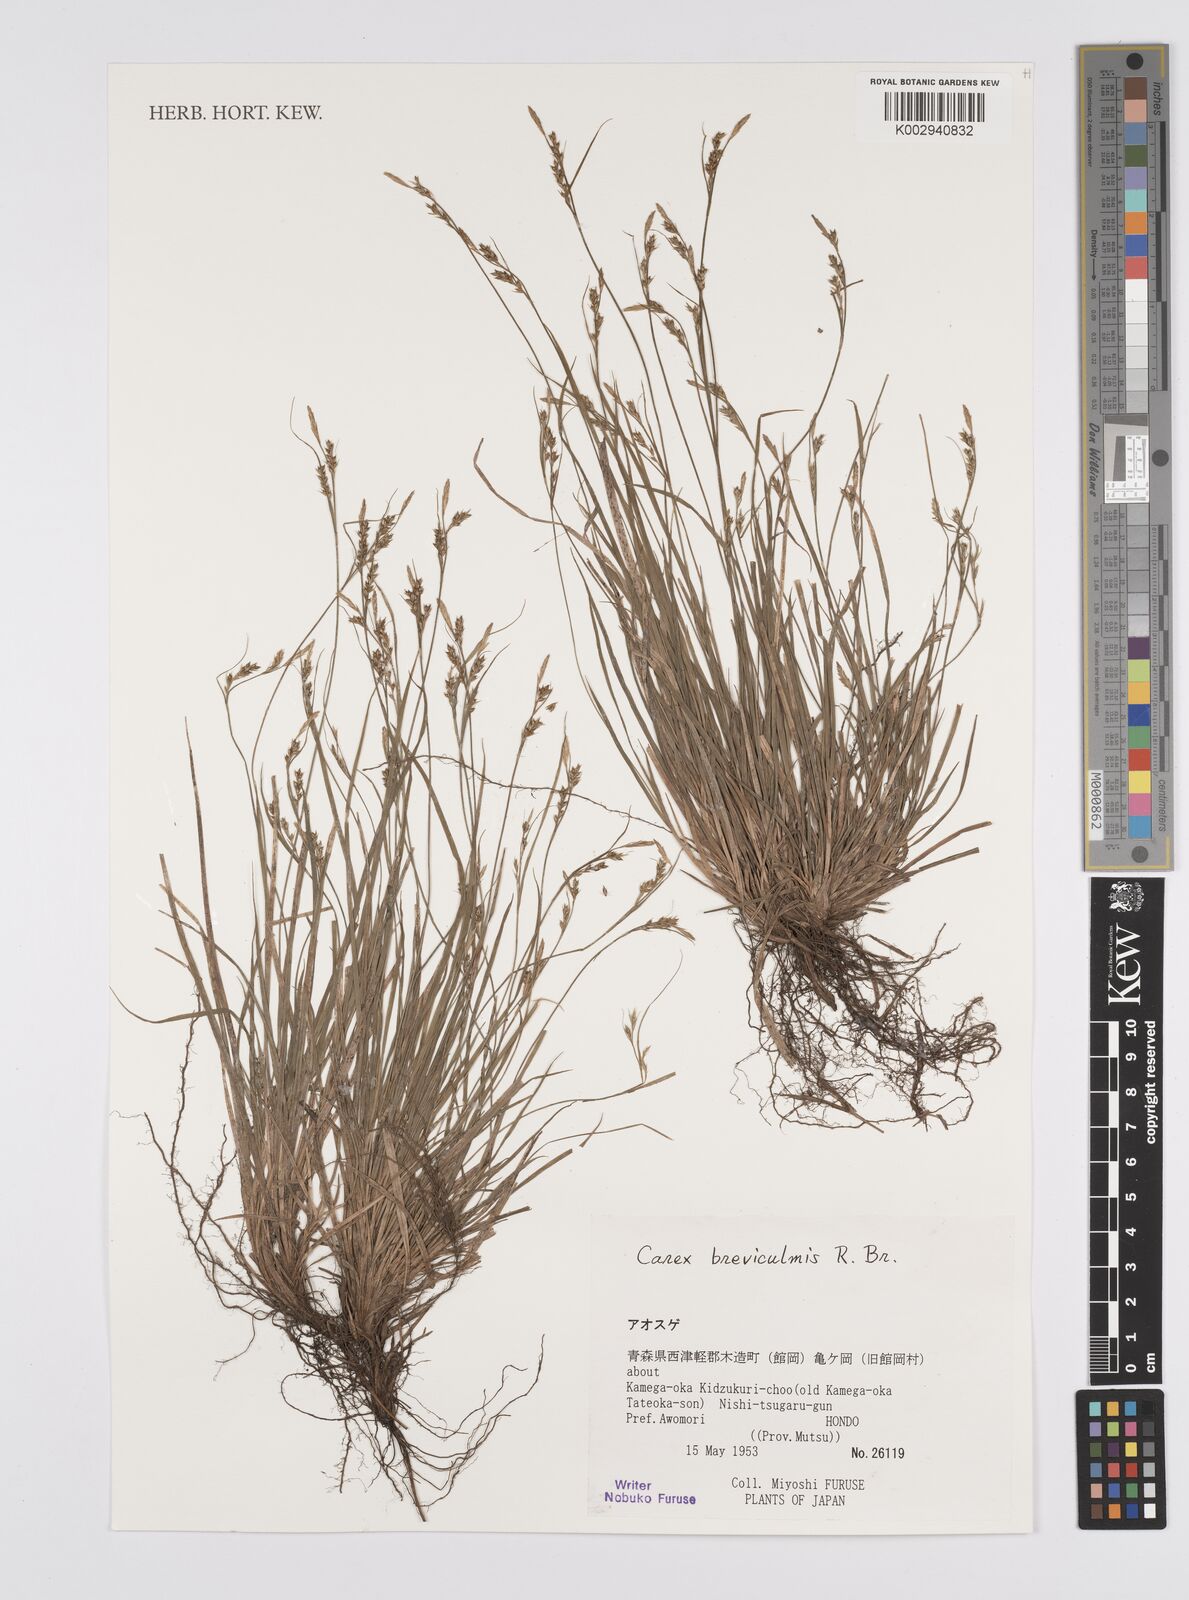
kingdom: Plantae
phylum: Tracheophyta
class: Liliopsida
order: Poales
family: Cyperaceae
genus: Carex
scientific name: Carex breviculmis
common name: Asian shortstem sedge
